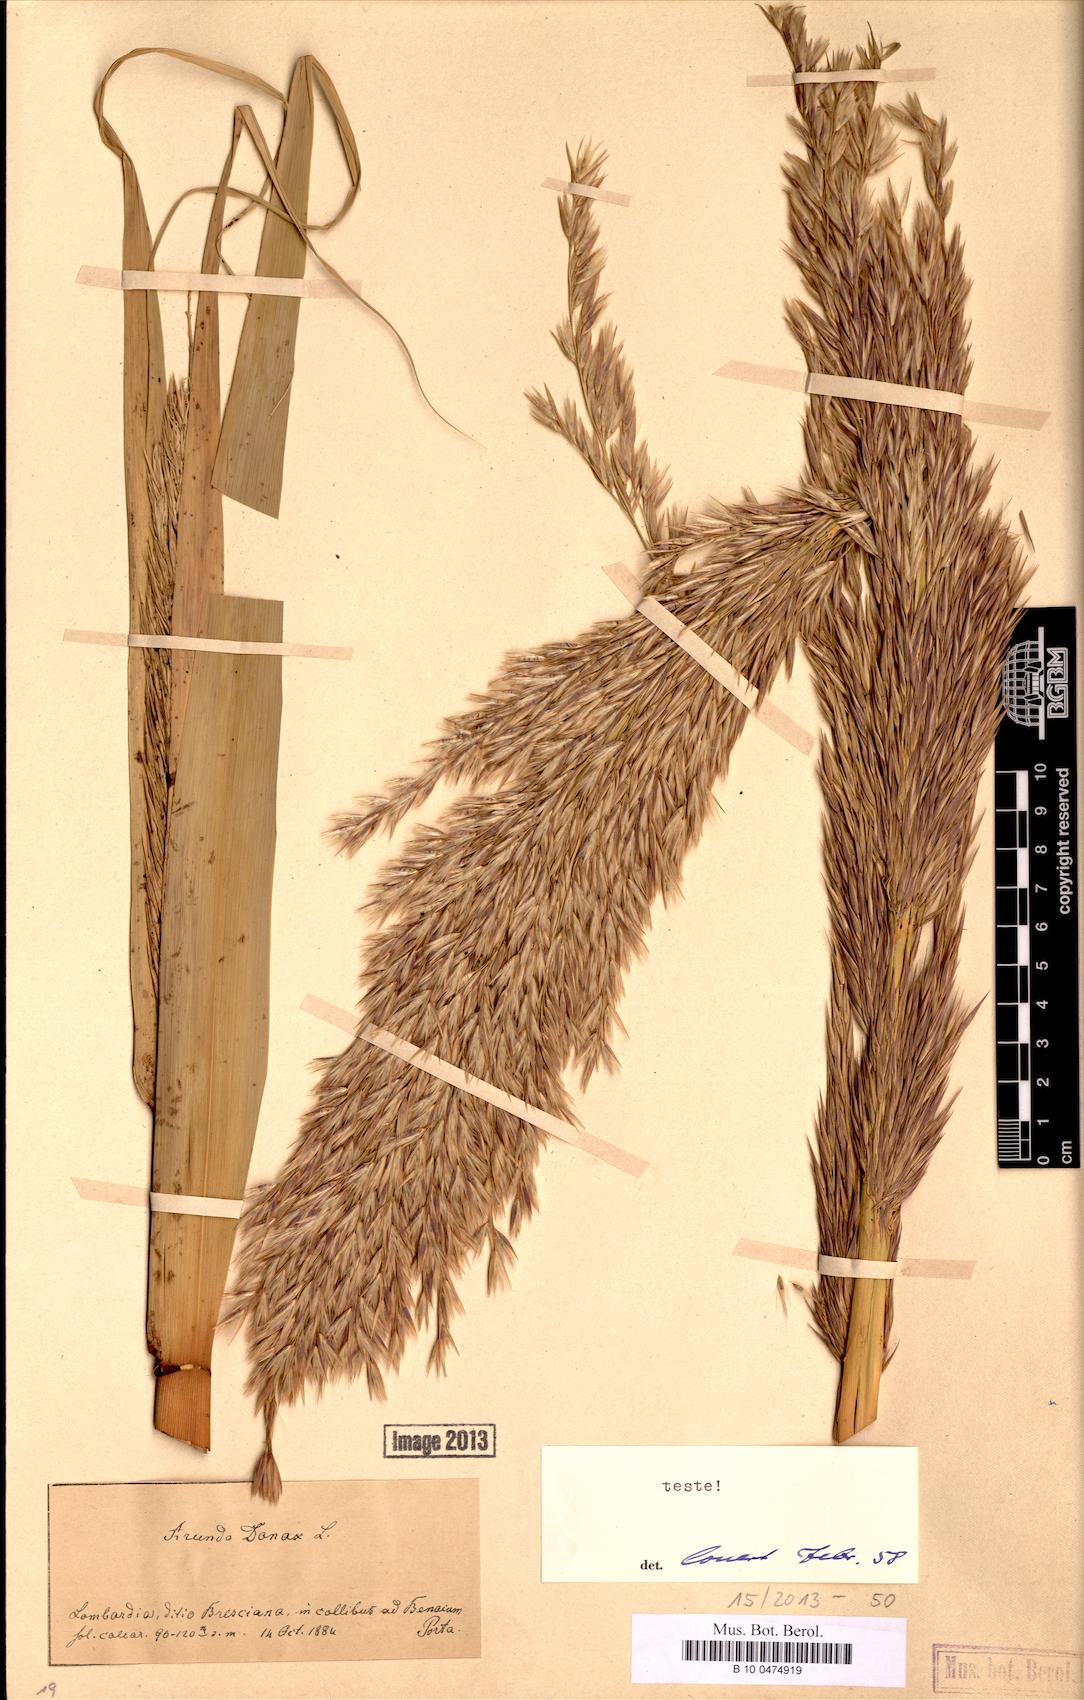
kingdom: Plantae
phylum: Tracheophyta
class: Liliopsida
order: Poales
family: Poaceae
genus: Arundo
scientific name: Arundo donax
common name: Giant reed
